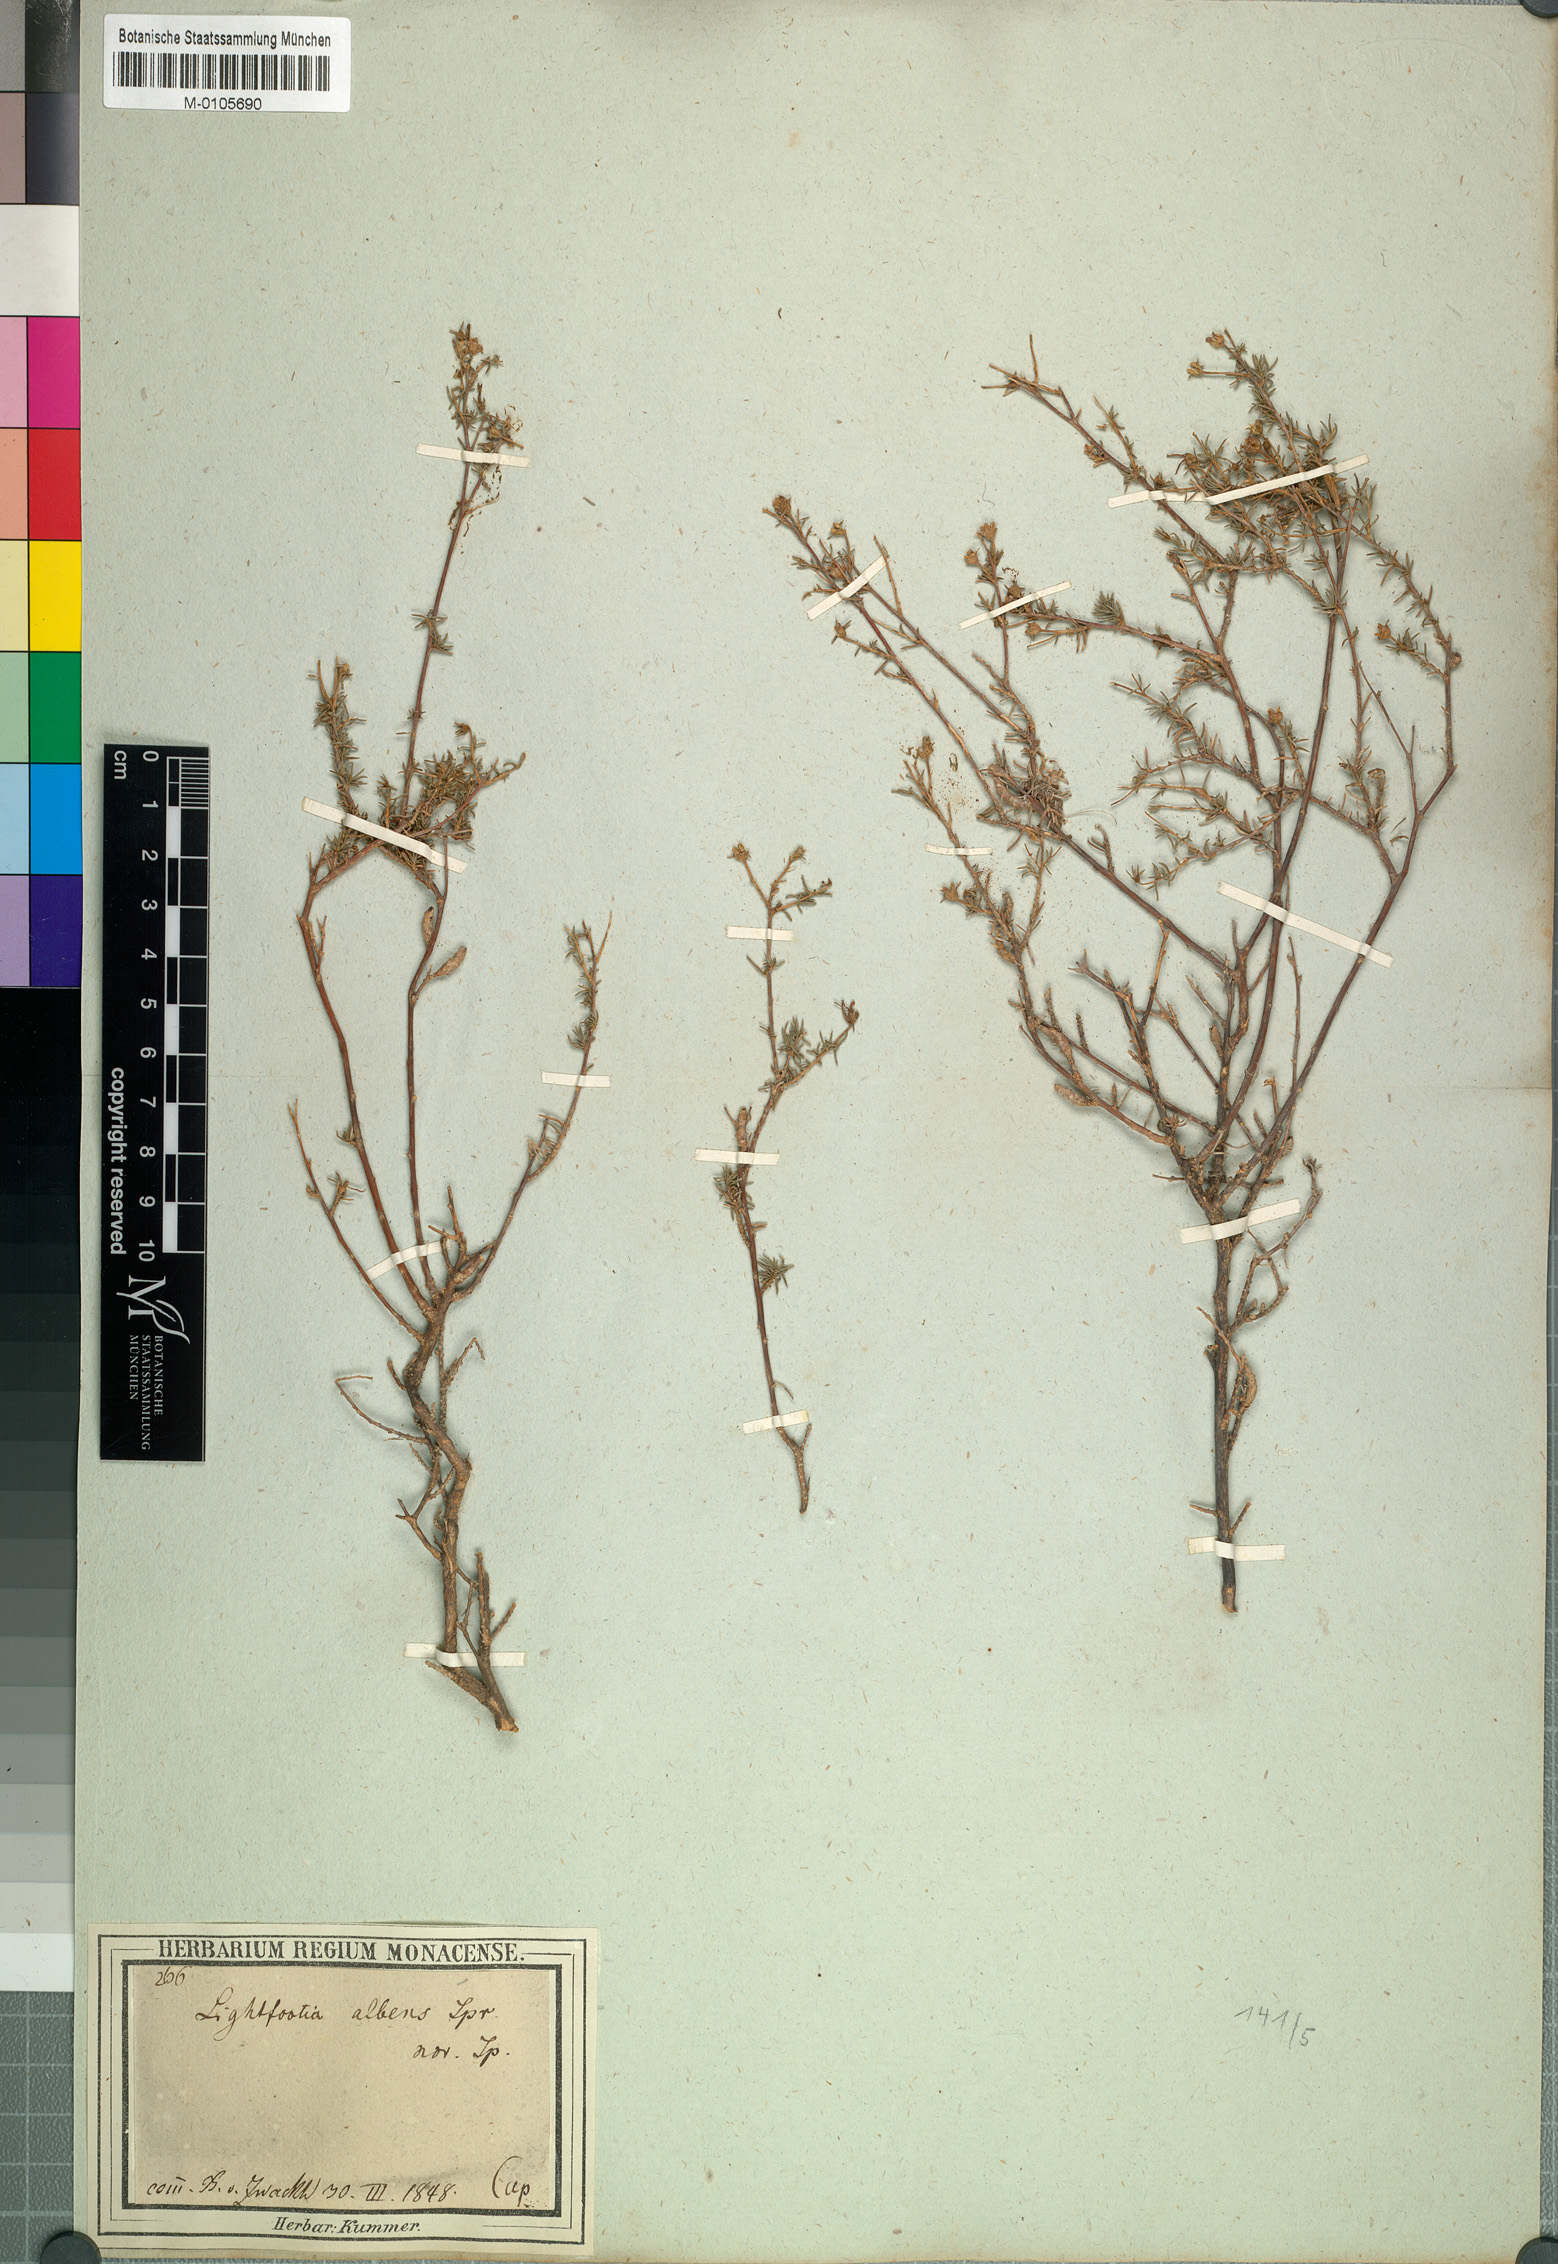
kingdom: Plantae
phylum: Tracheophyta
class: Magnoliopsida
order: Asterales
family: Campanulaceae
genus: Wahlenbergia
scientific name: Wahlenbergia albens
